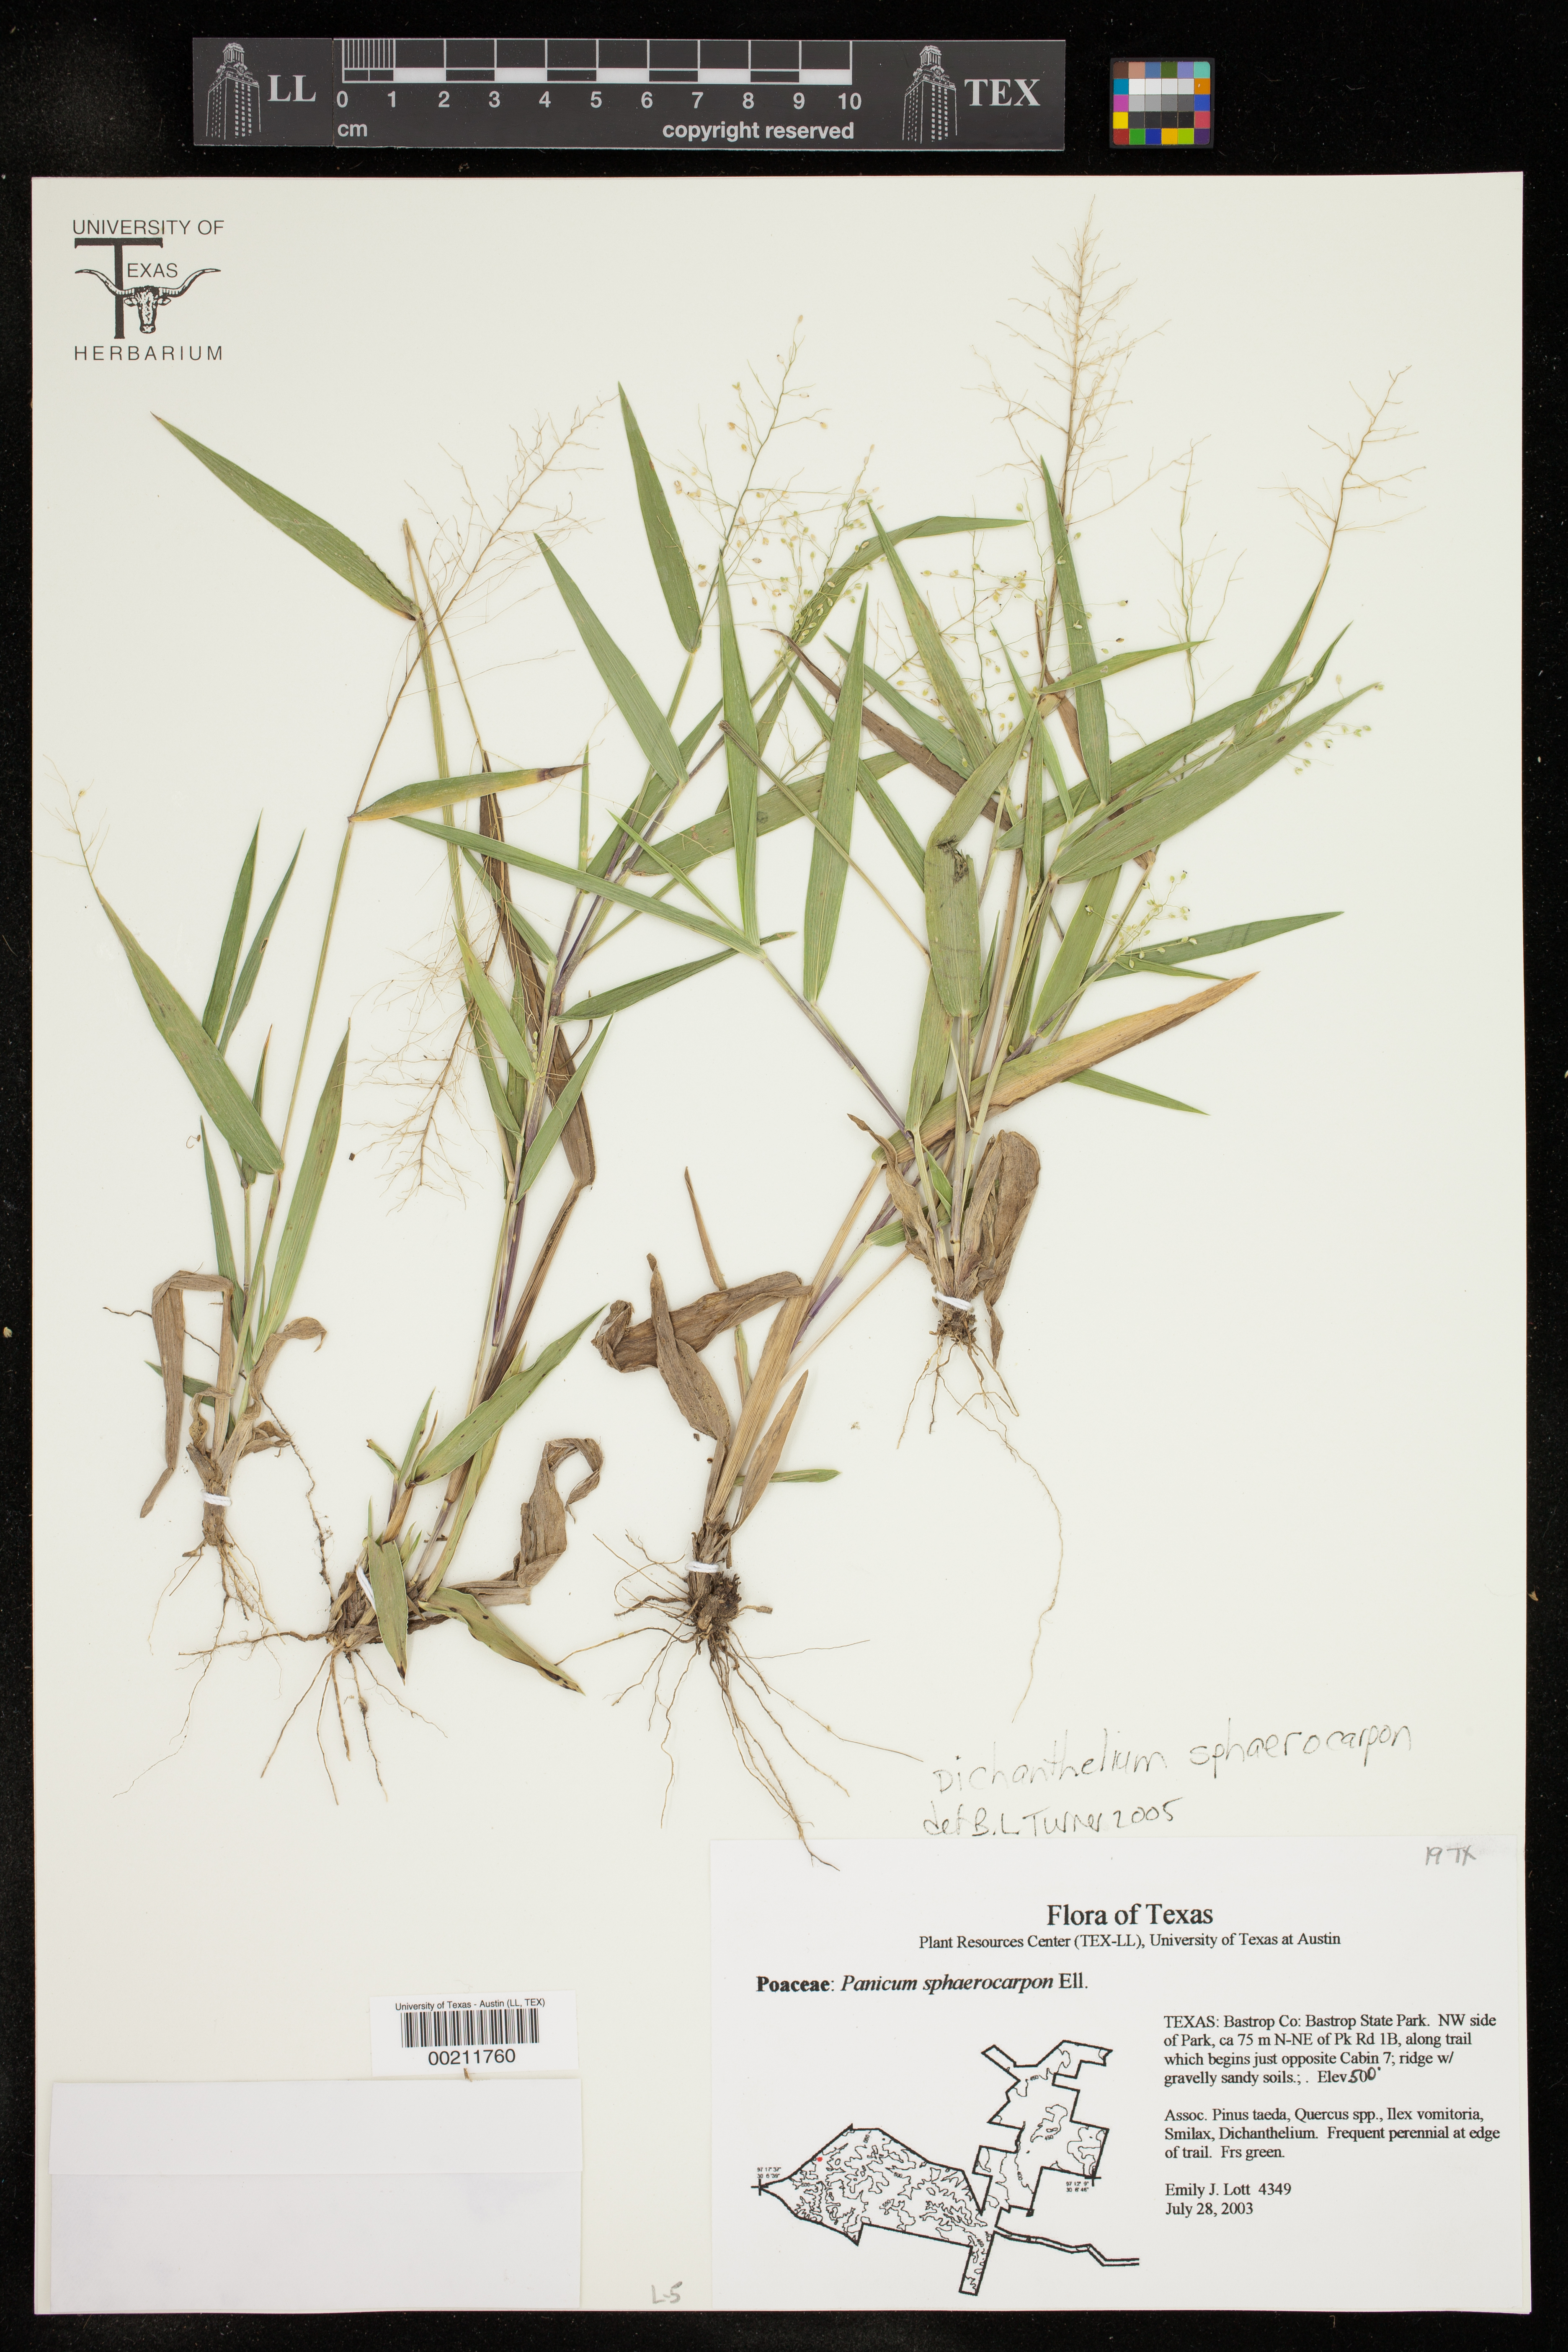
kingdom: Plantae
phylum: Tracheophyta
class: Liliopsida
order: Poales
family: Poaceae
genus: Dichanthelium
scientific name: Dichanthelium sphaerocarpon
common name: Round-fruited panicgrass
